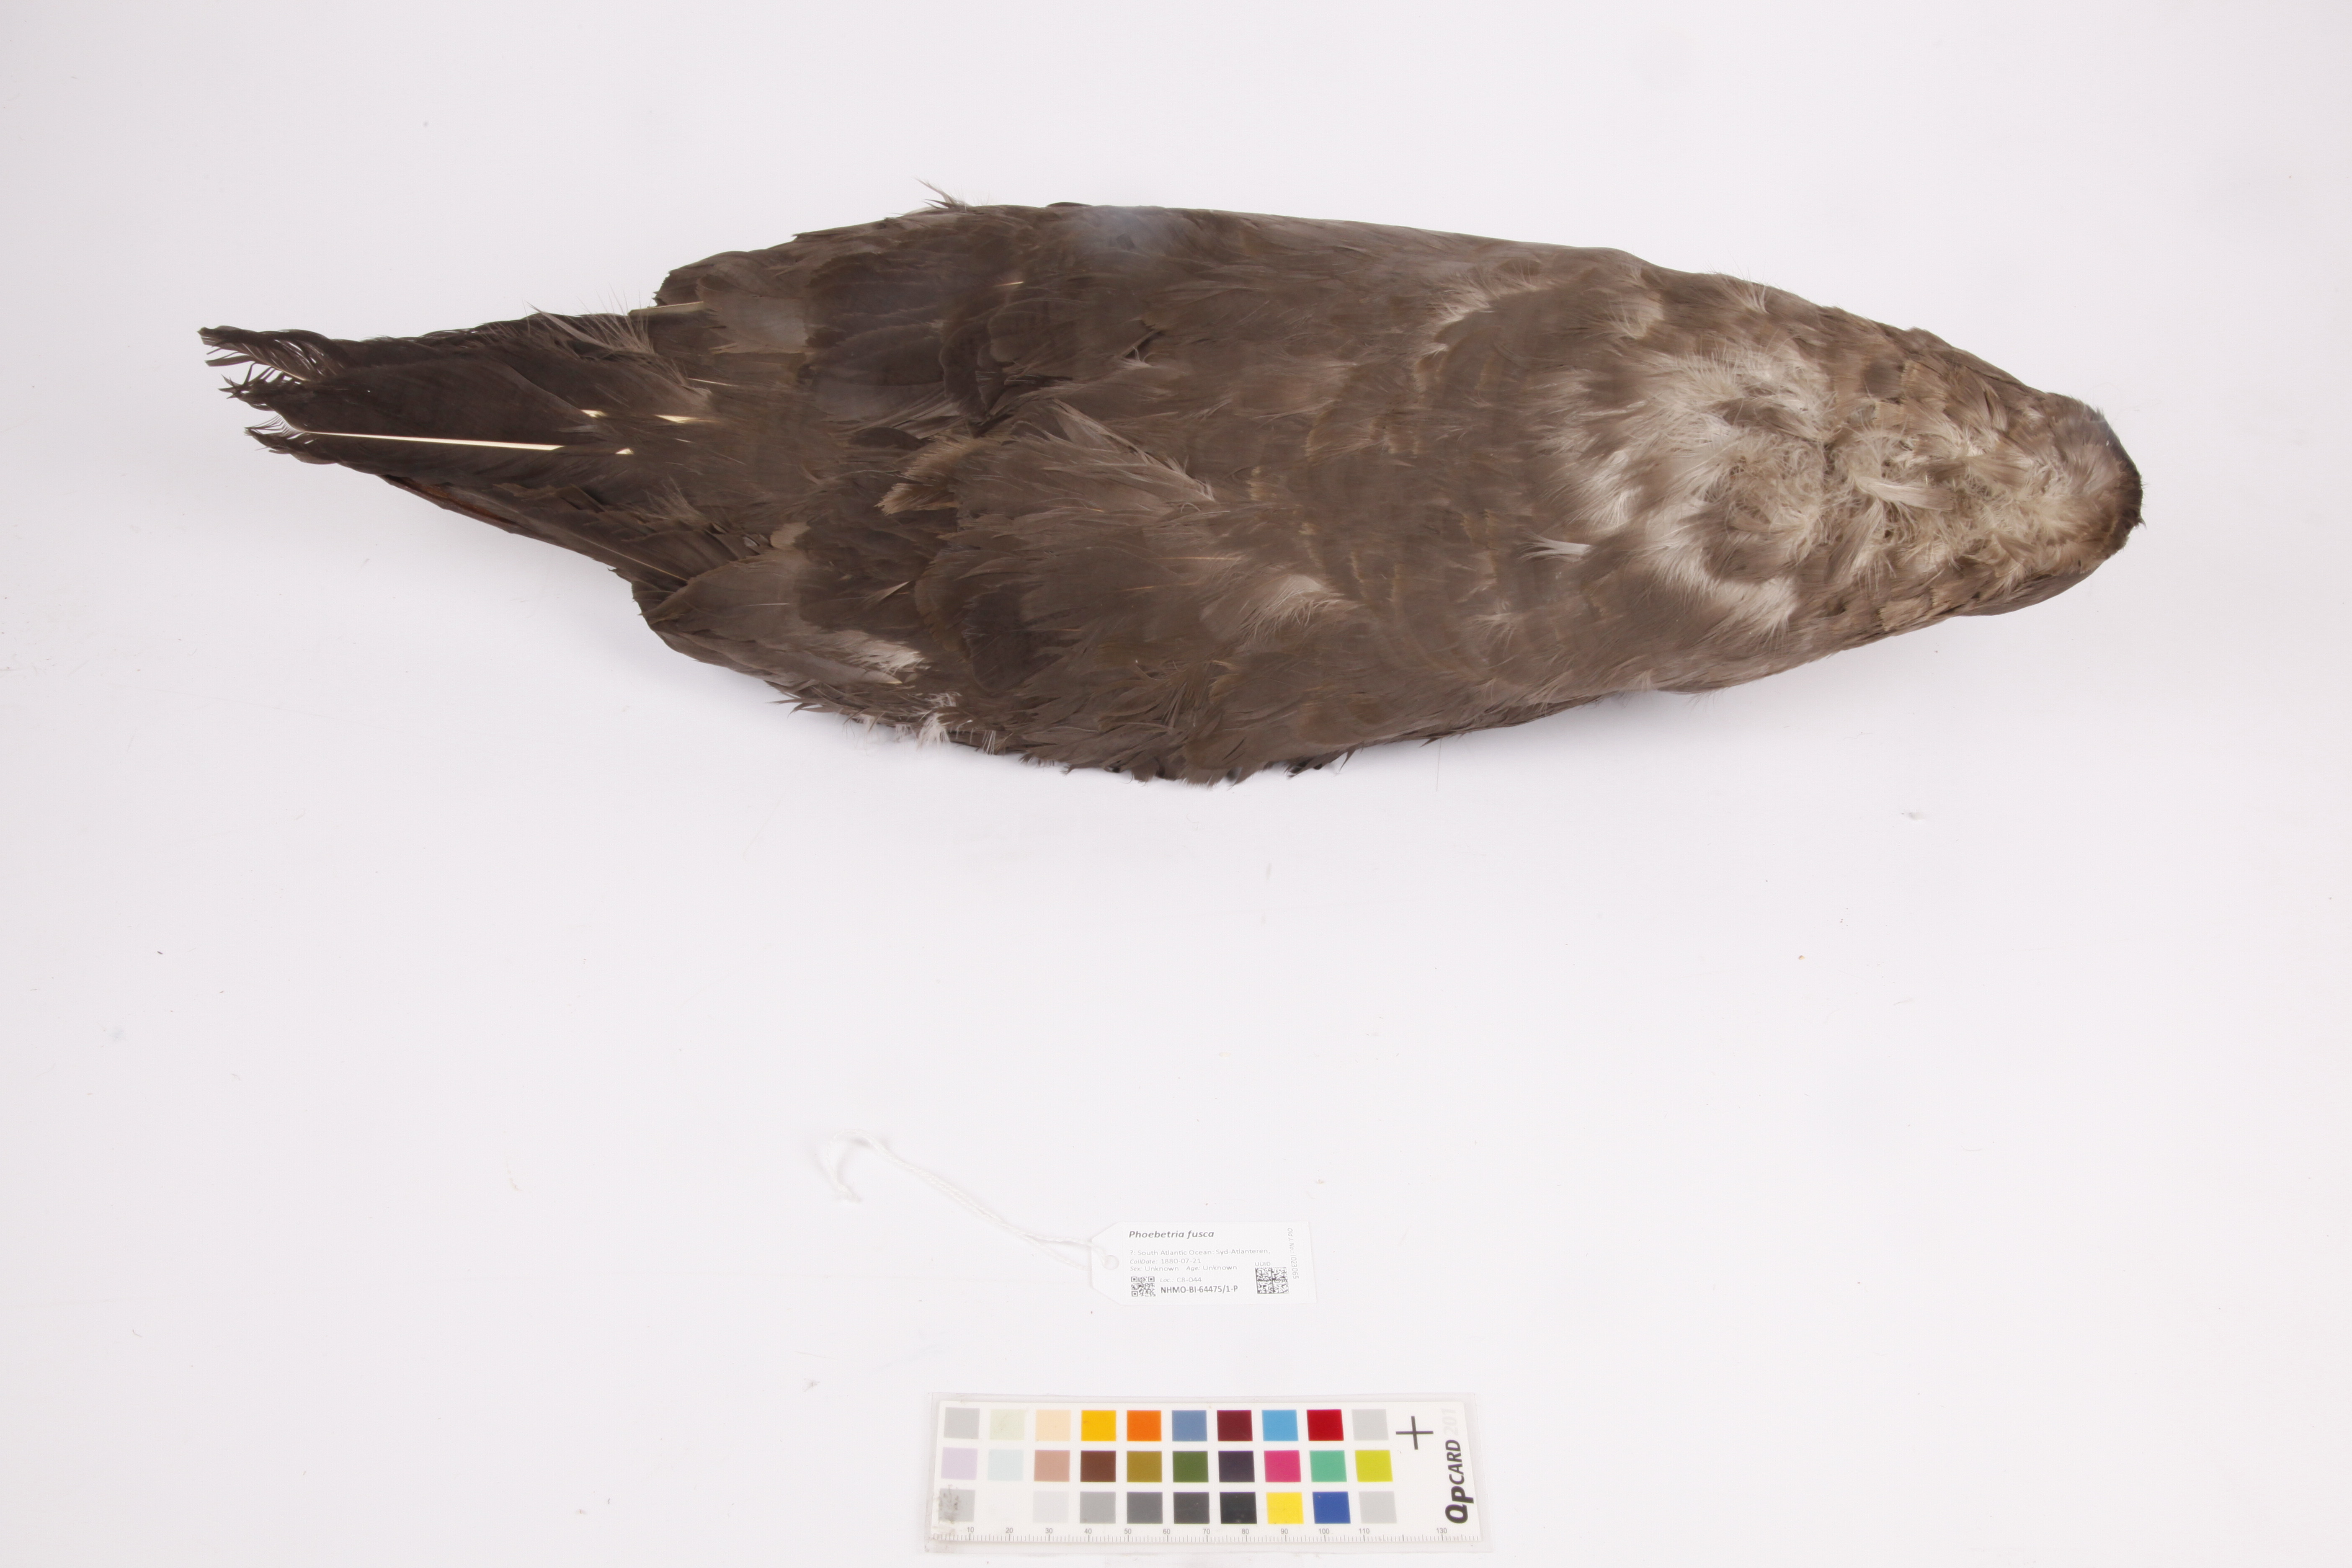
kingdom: Animalia
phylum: Chordata
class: Aves
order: Procellariiformes
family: Diomedeidae
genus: Phoebetria
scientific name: Phoebetria fusca
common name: Sooty albatross
